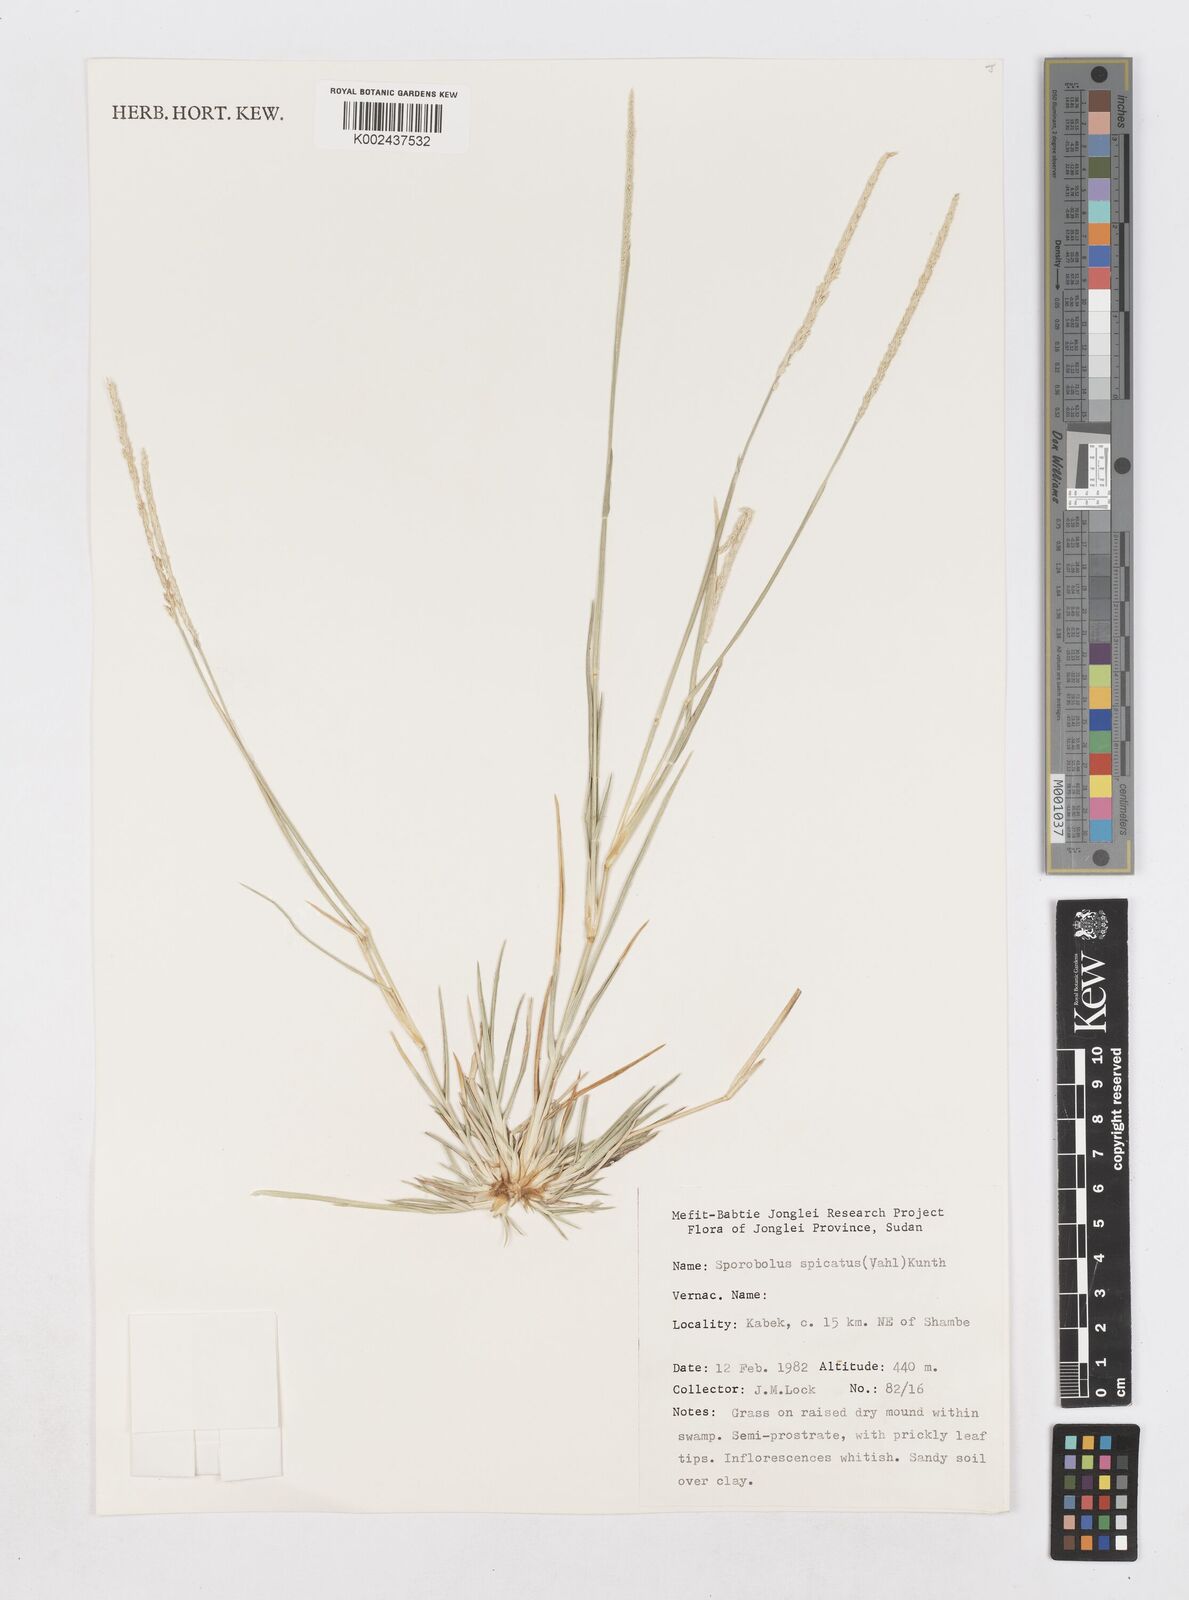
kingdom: Plantae
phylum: Tracheophyta
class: Liliopsida
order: Poales
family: Poaceae
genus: Sporobolus
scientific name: Sporobolus spicatus
